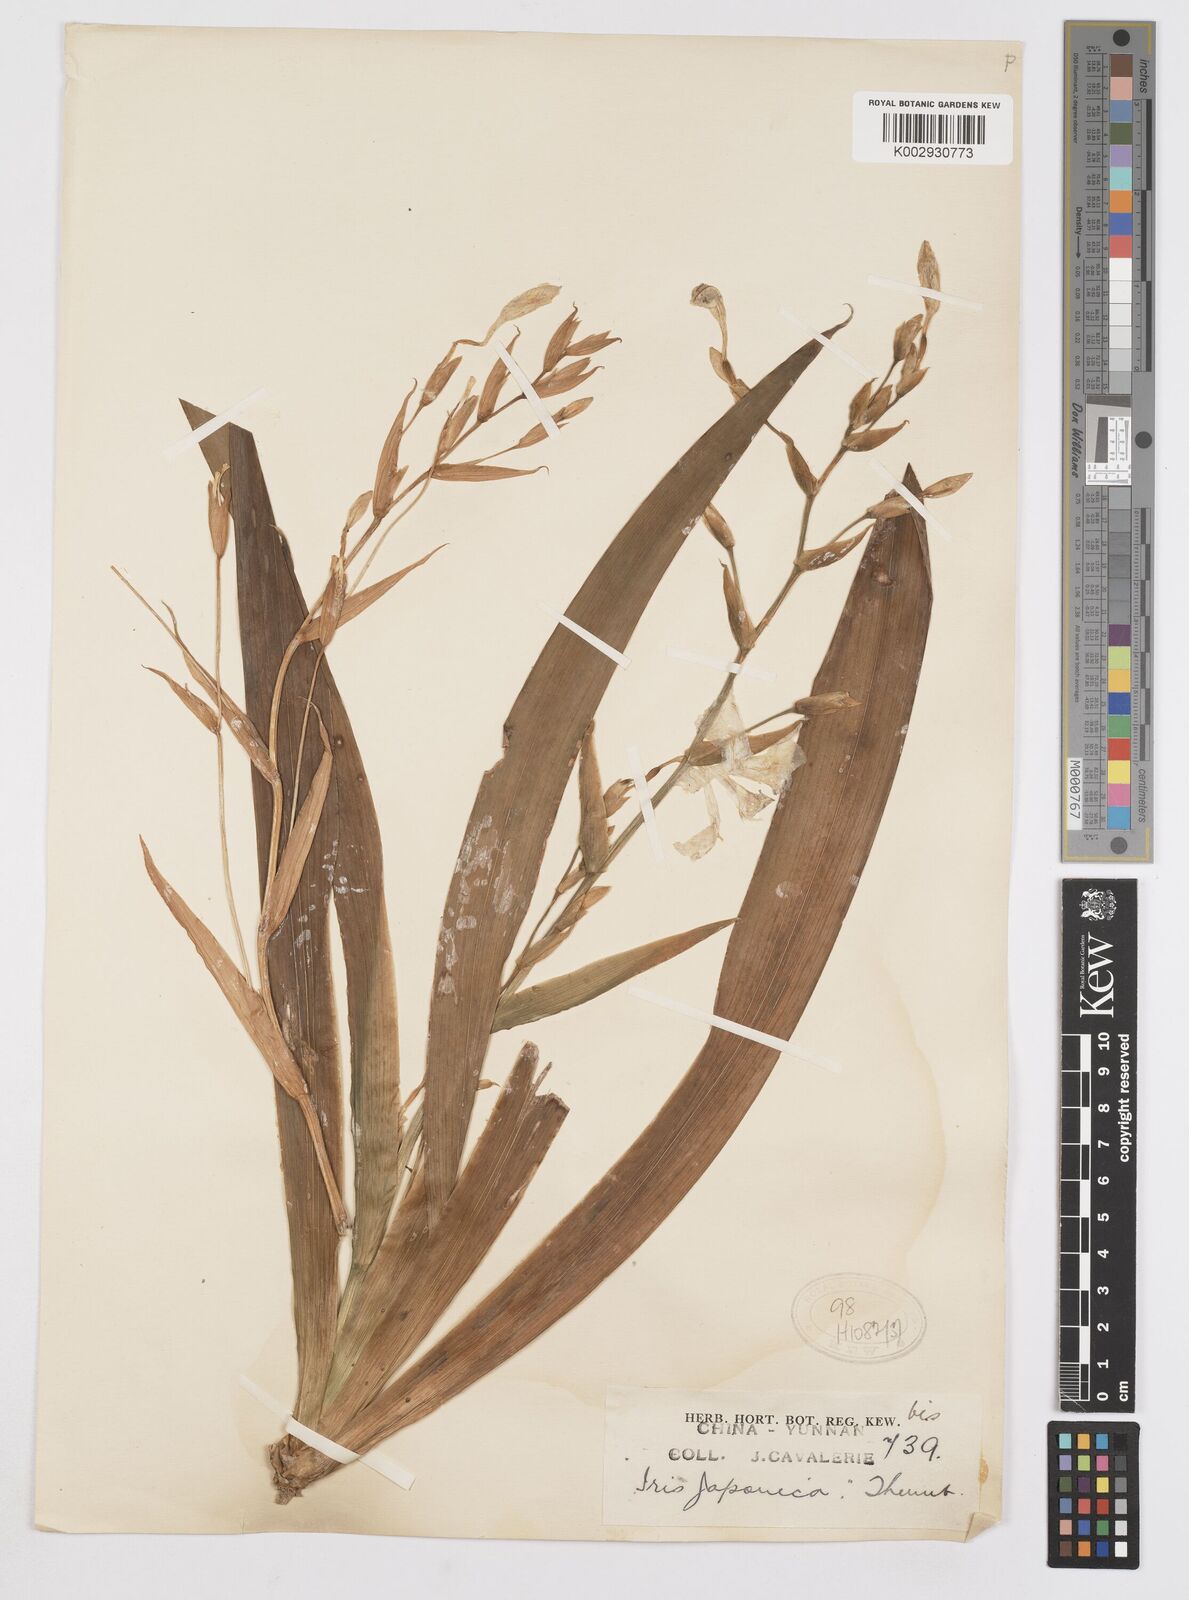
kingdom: Plantae
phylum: Tracheophyta
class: Liliopsida
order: Asparagales
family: Iridaceae
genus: Iris
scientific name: Iris japonica
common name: Butterfly-flower
